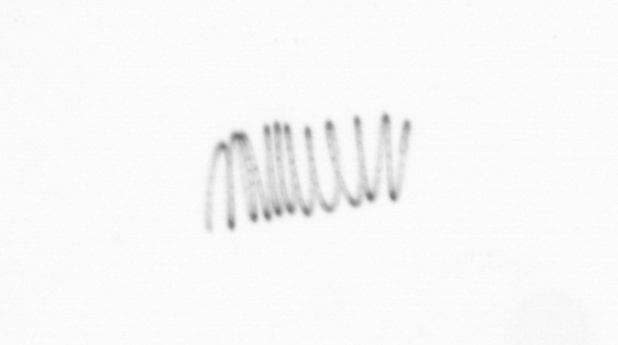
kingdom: Chromista
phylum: Ochrophyta
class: Bacillariophyceae
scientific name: Bacillariophyceae
